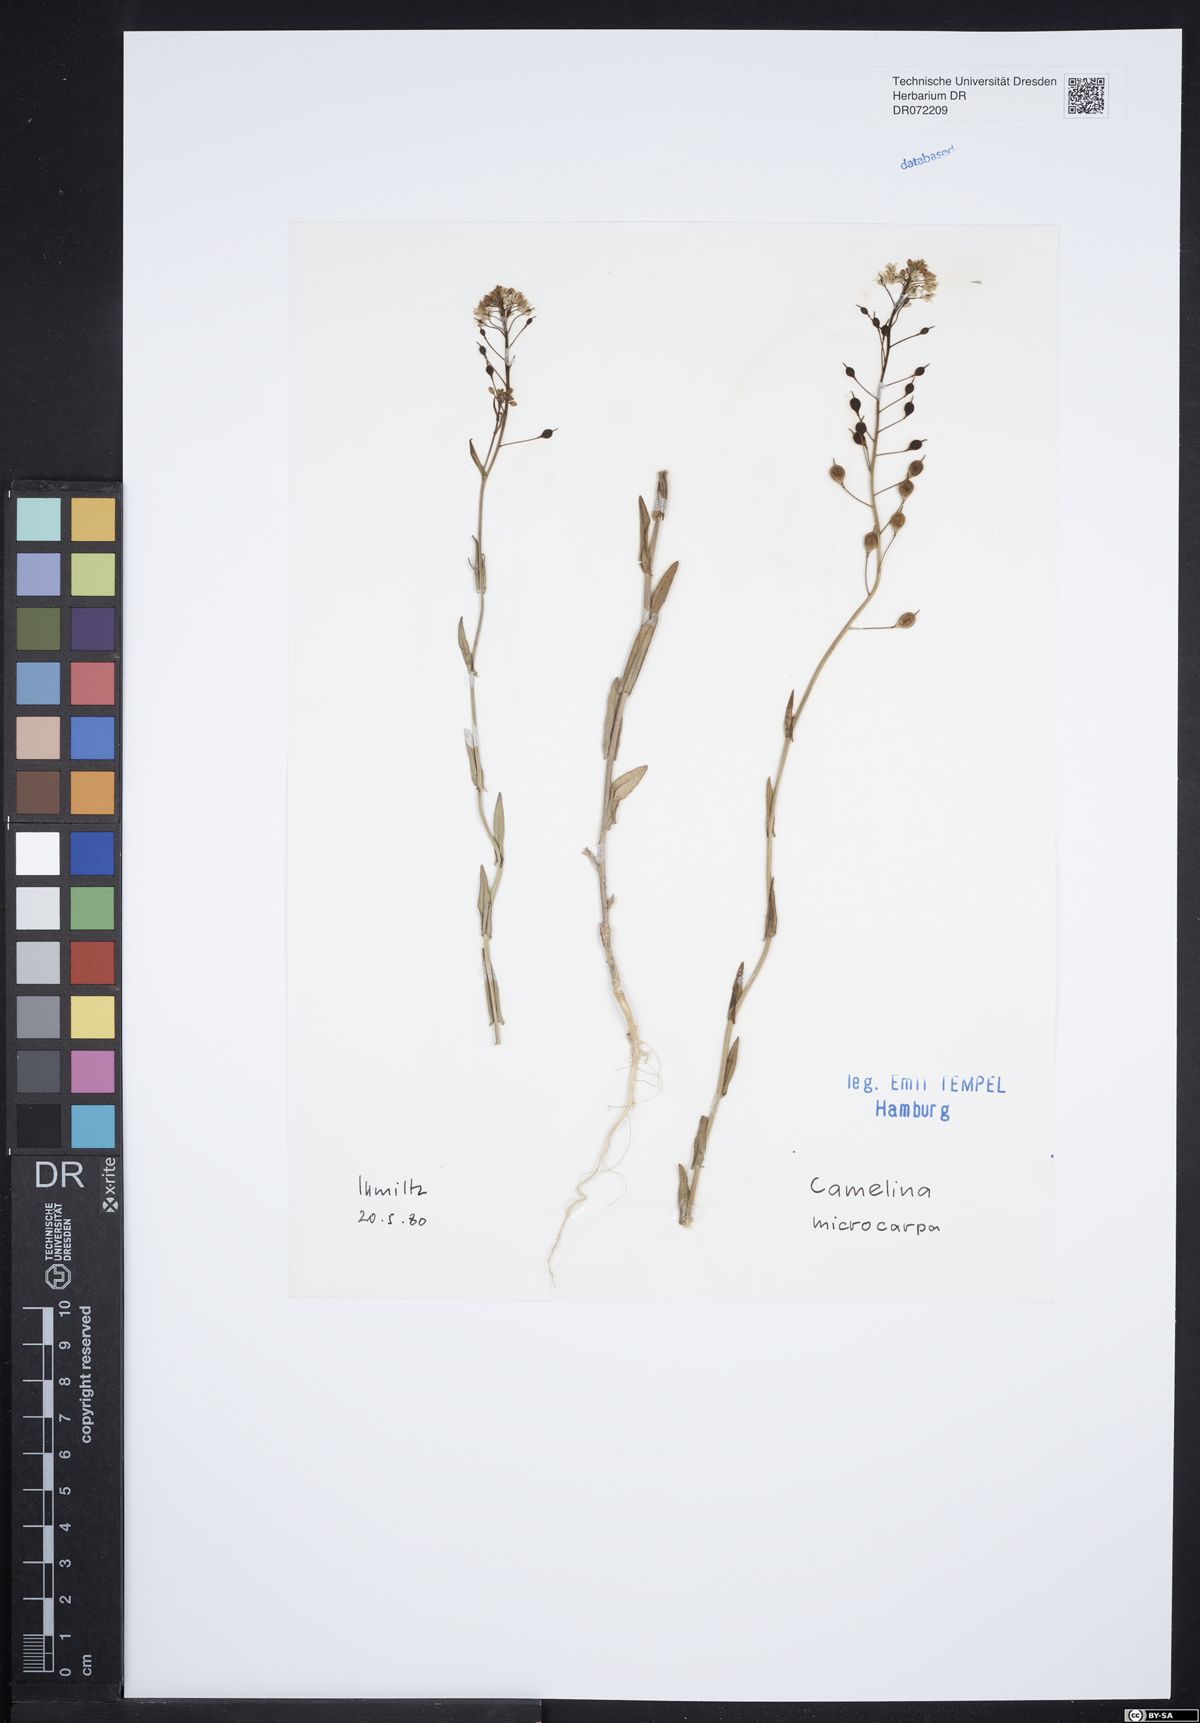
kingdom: Plantae
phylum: Tracheophyta
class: Magnoliopsida
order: Brassicales
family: Brassicaceae
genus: Camelina
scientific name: Camelina microcarpa
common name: Lesser gold-of-pleasure
